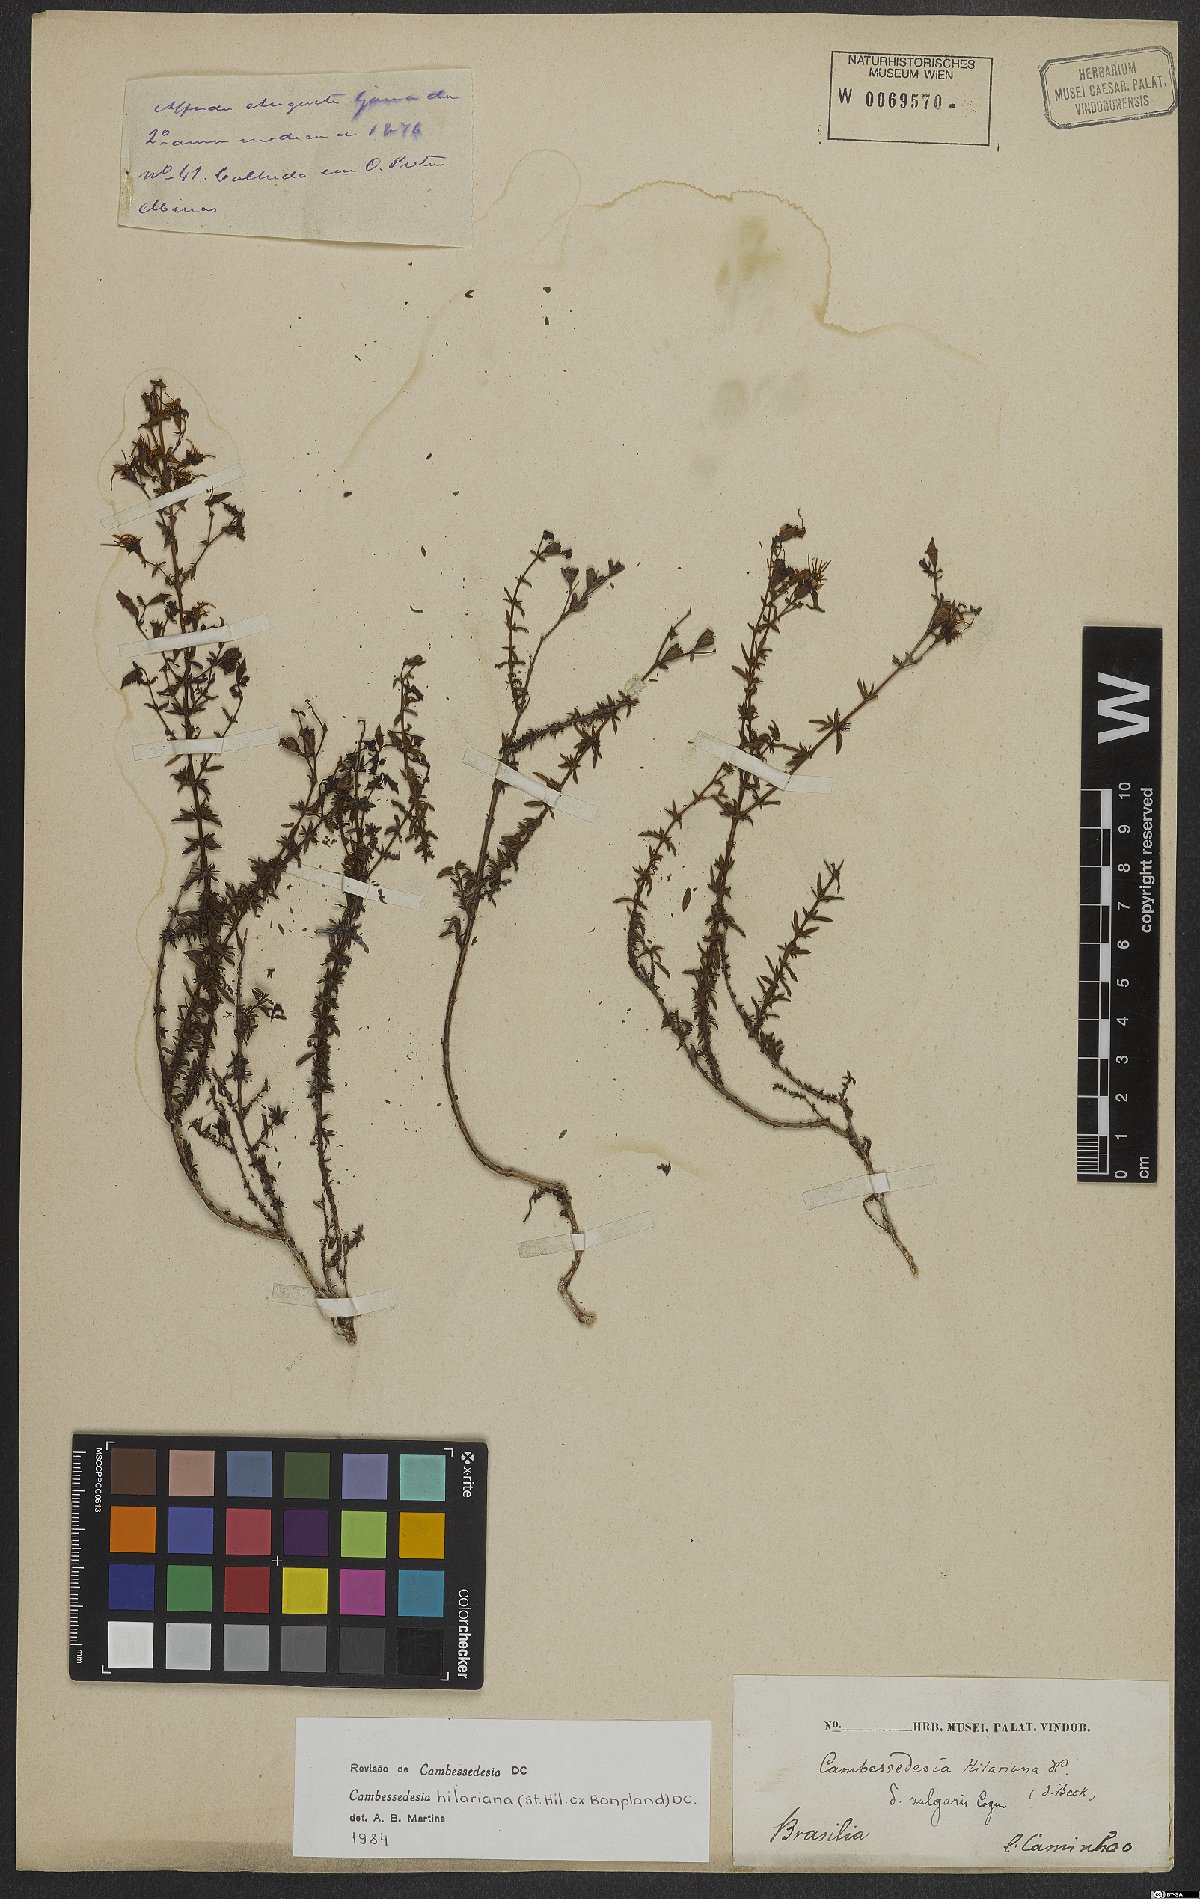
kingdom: Plantae
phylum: Tracheophyta
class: Magnoliopsida
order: Myrtales
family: Melastomataceae
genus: Cambessedesia
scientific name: Cambessedesia hilariana
